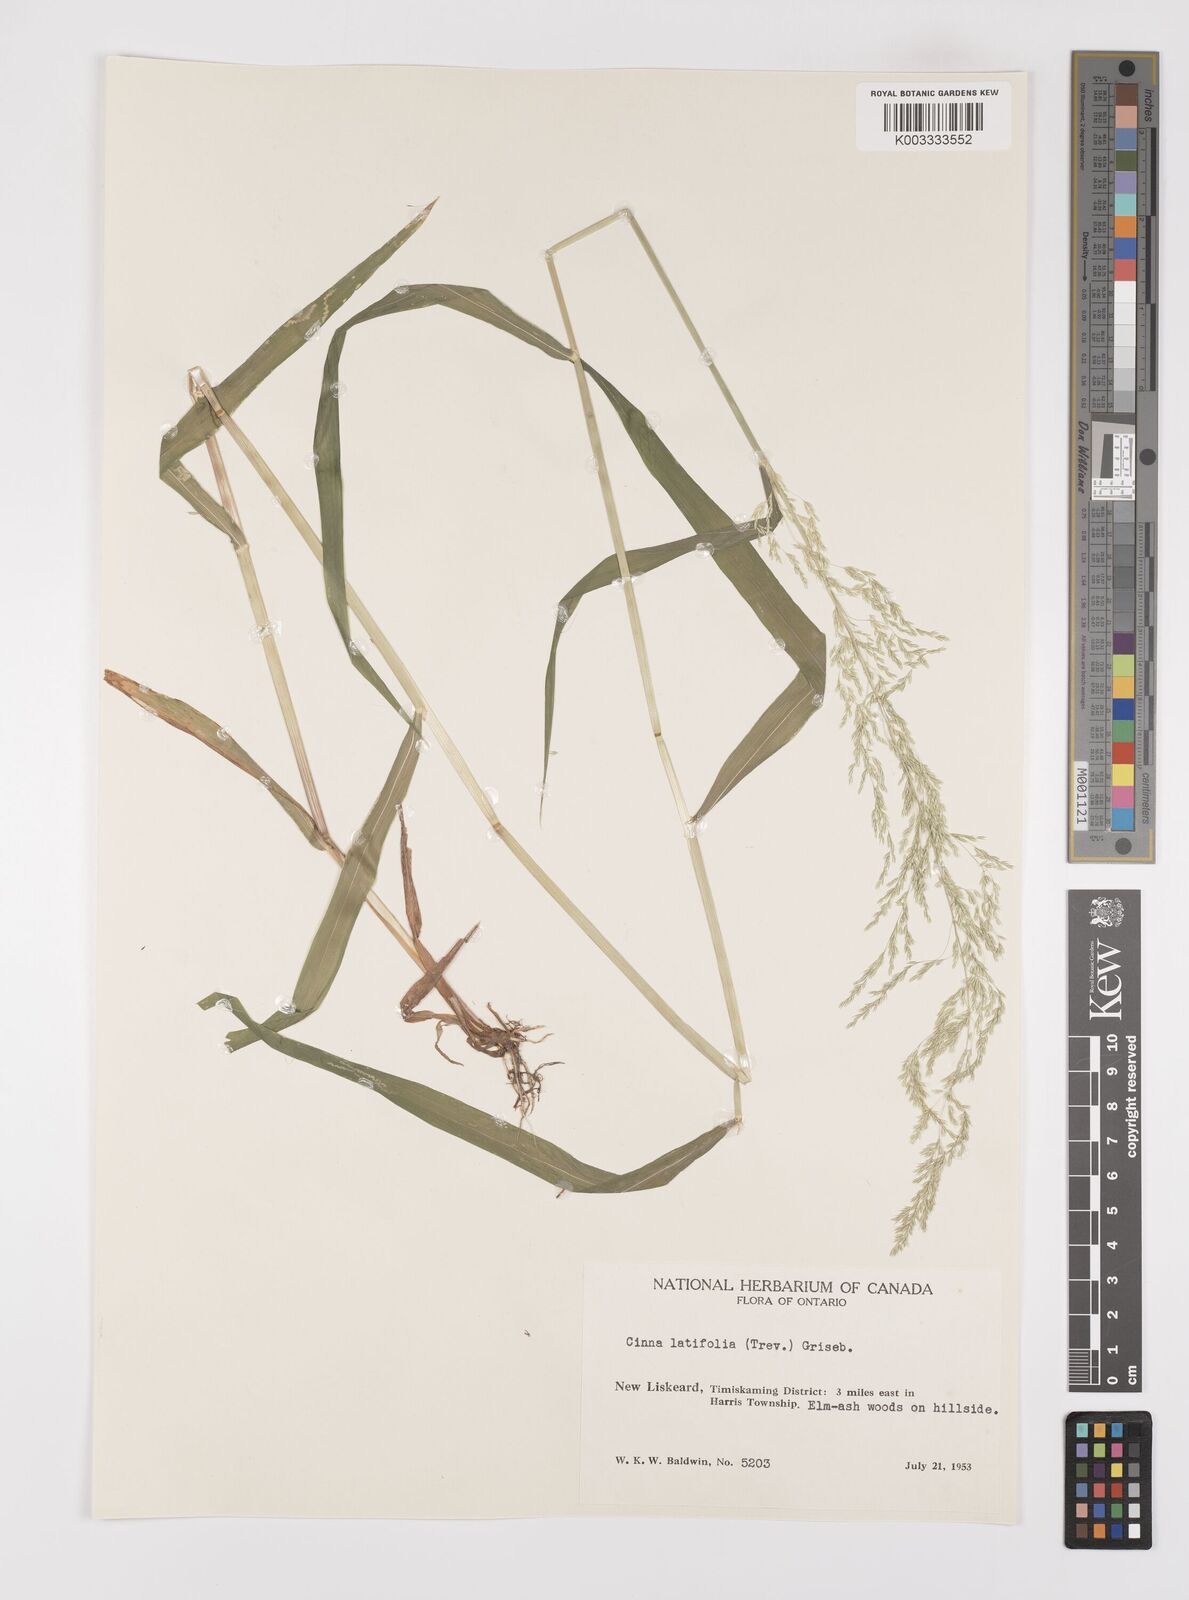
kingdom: Plantae
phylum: Tracheophyta
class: Liliopsida
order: Poales
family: Poaceae
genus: Cinna
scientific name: Cinna latifolia
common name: Drooping woodreed
